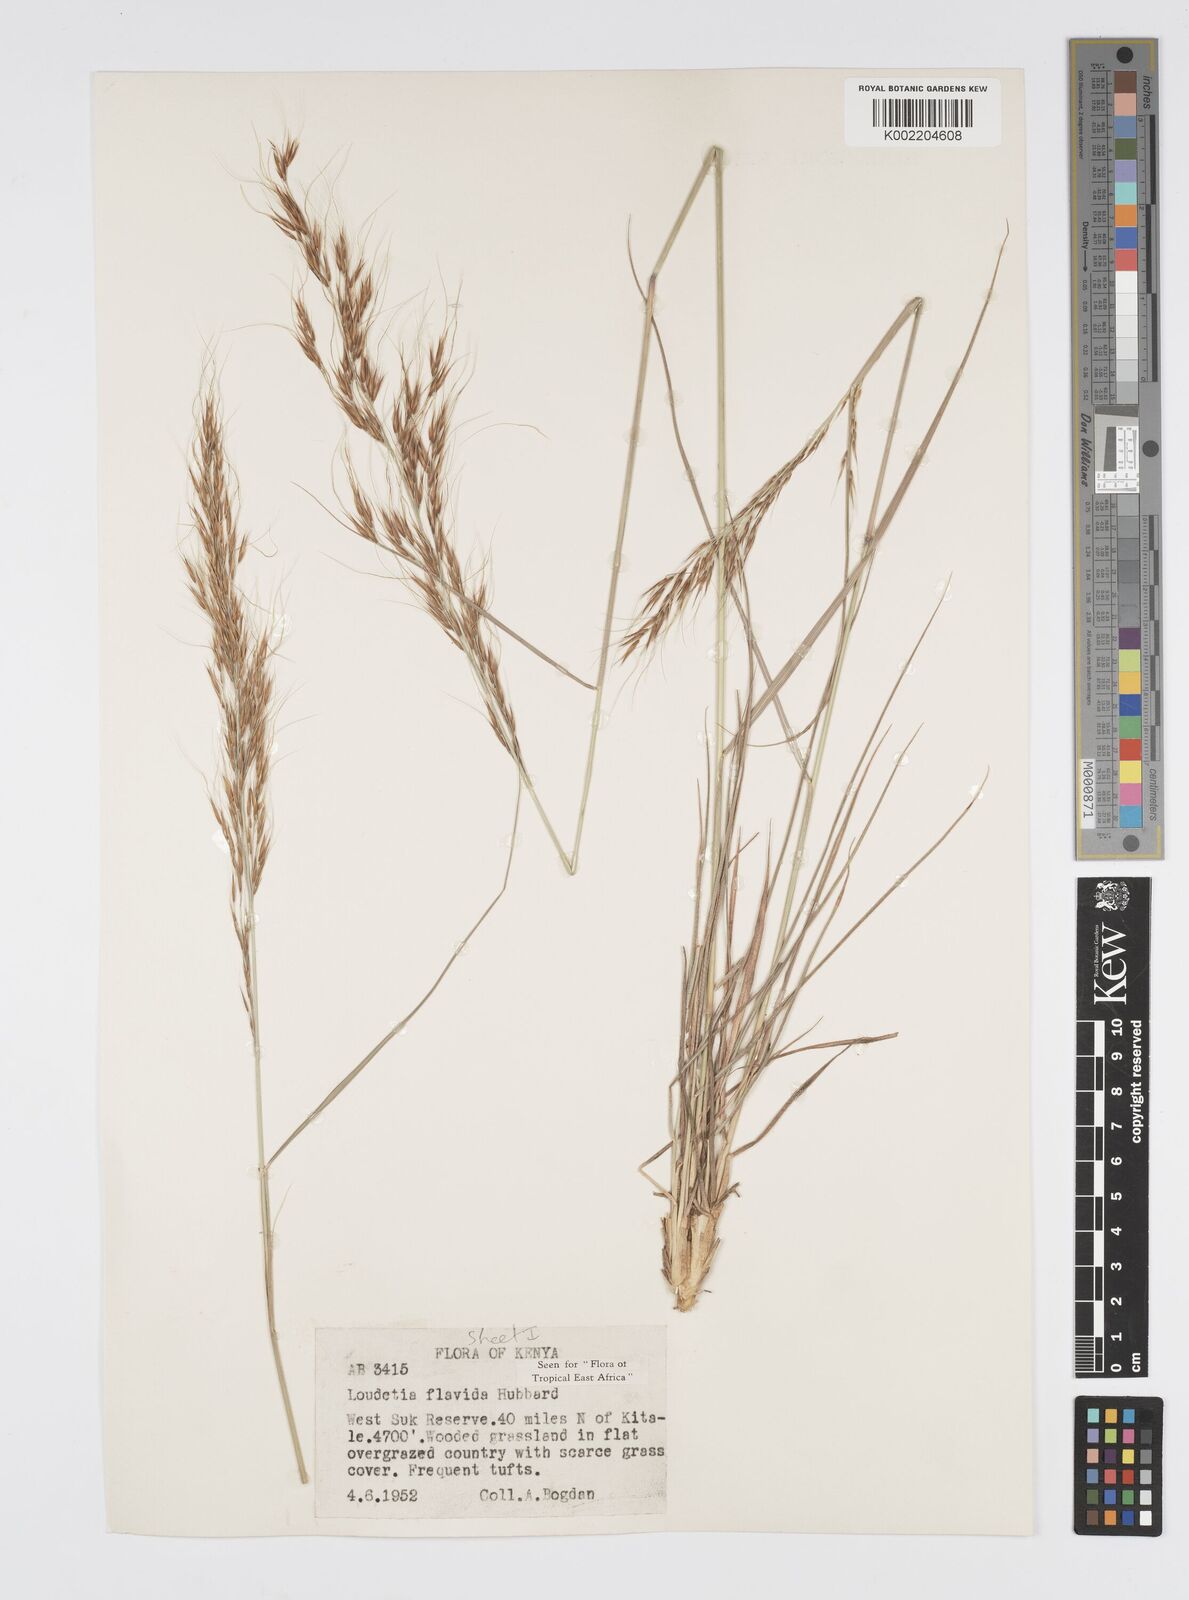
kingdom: Plantae
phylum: Tracheophyta
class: Liliopsida
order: Poales
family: Poaceae
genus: Loudetia
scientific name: Loudetia flavida
